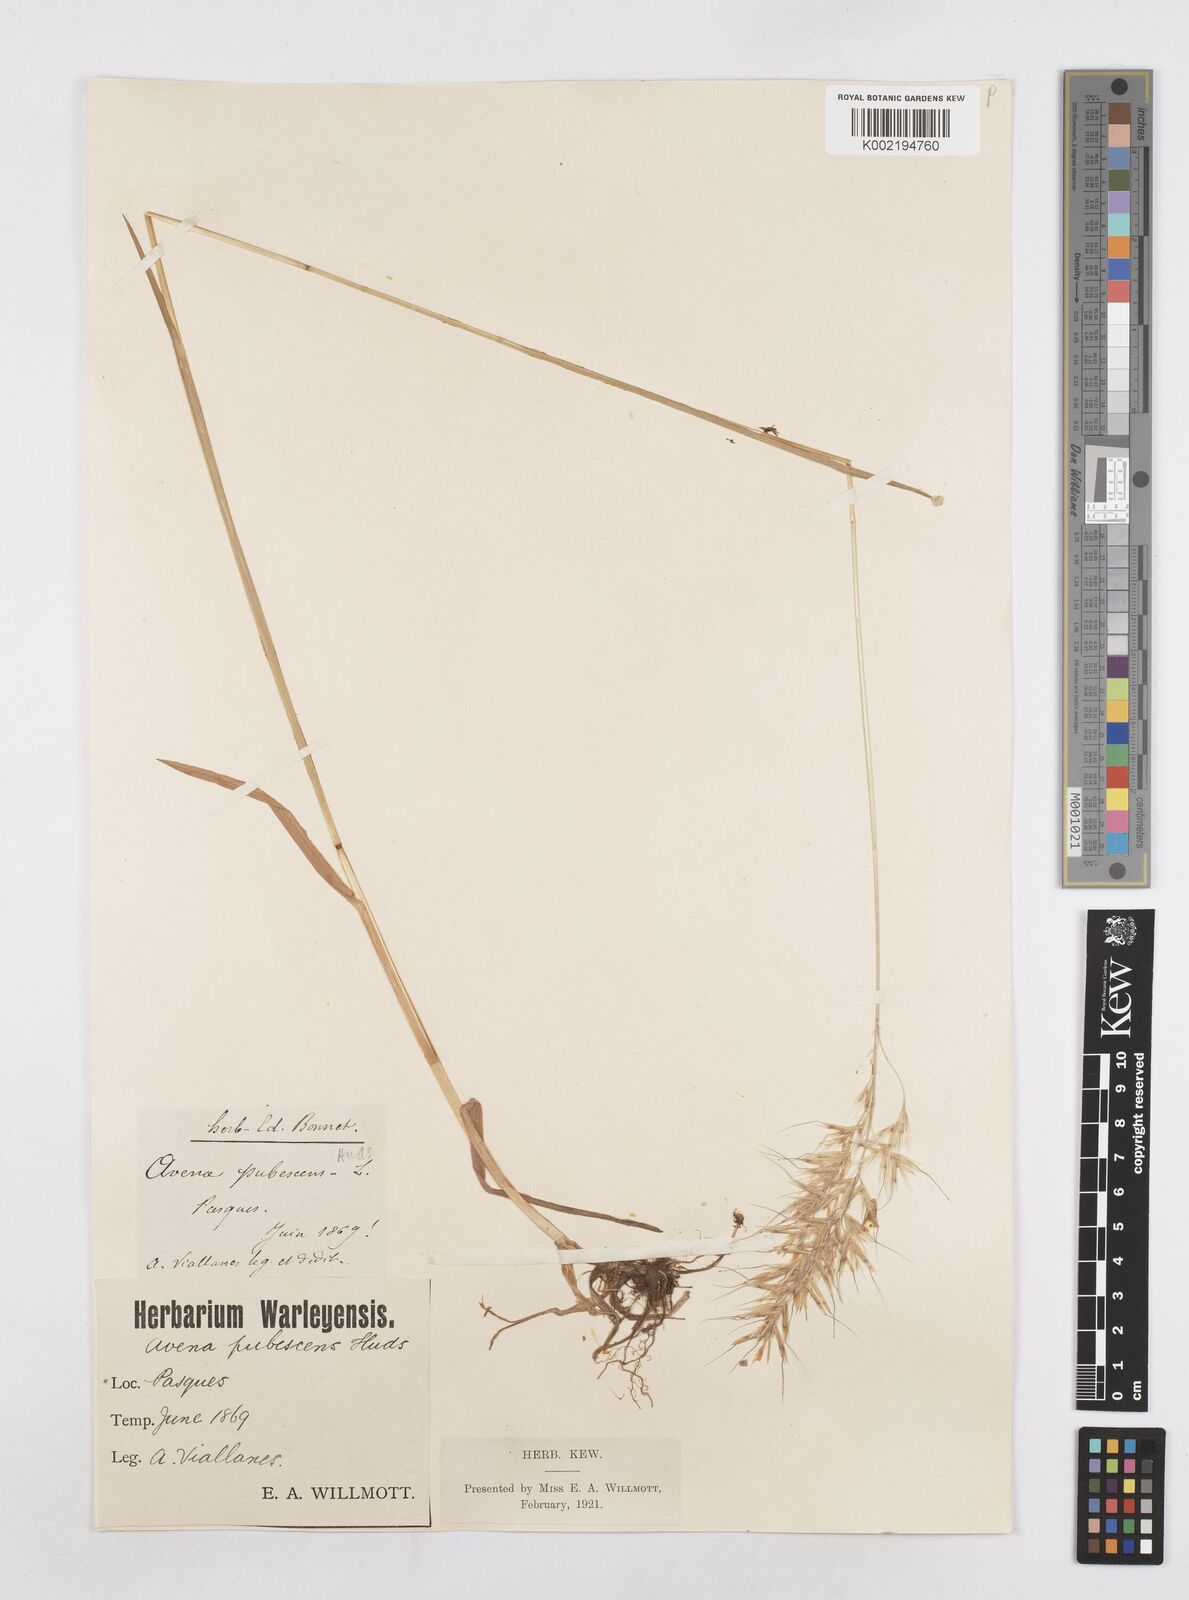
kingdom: Plantae
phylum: Tracheophyta
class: Liliopsida
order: Poales
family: Poaceae
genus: Avenula
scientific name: Avenula pubescens
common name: Downy alpine oatgrass
